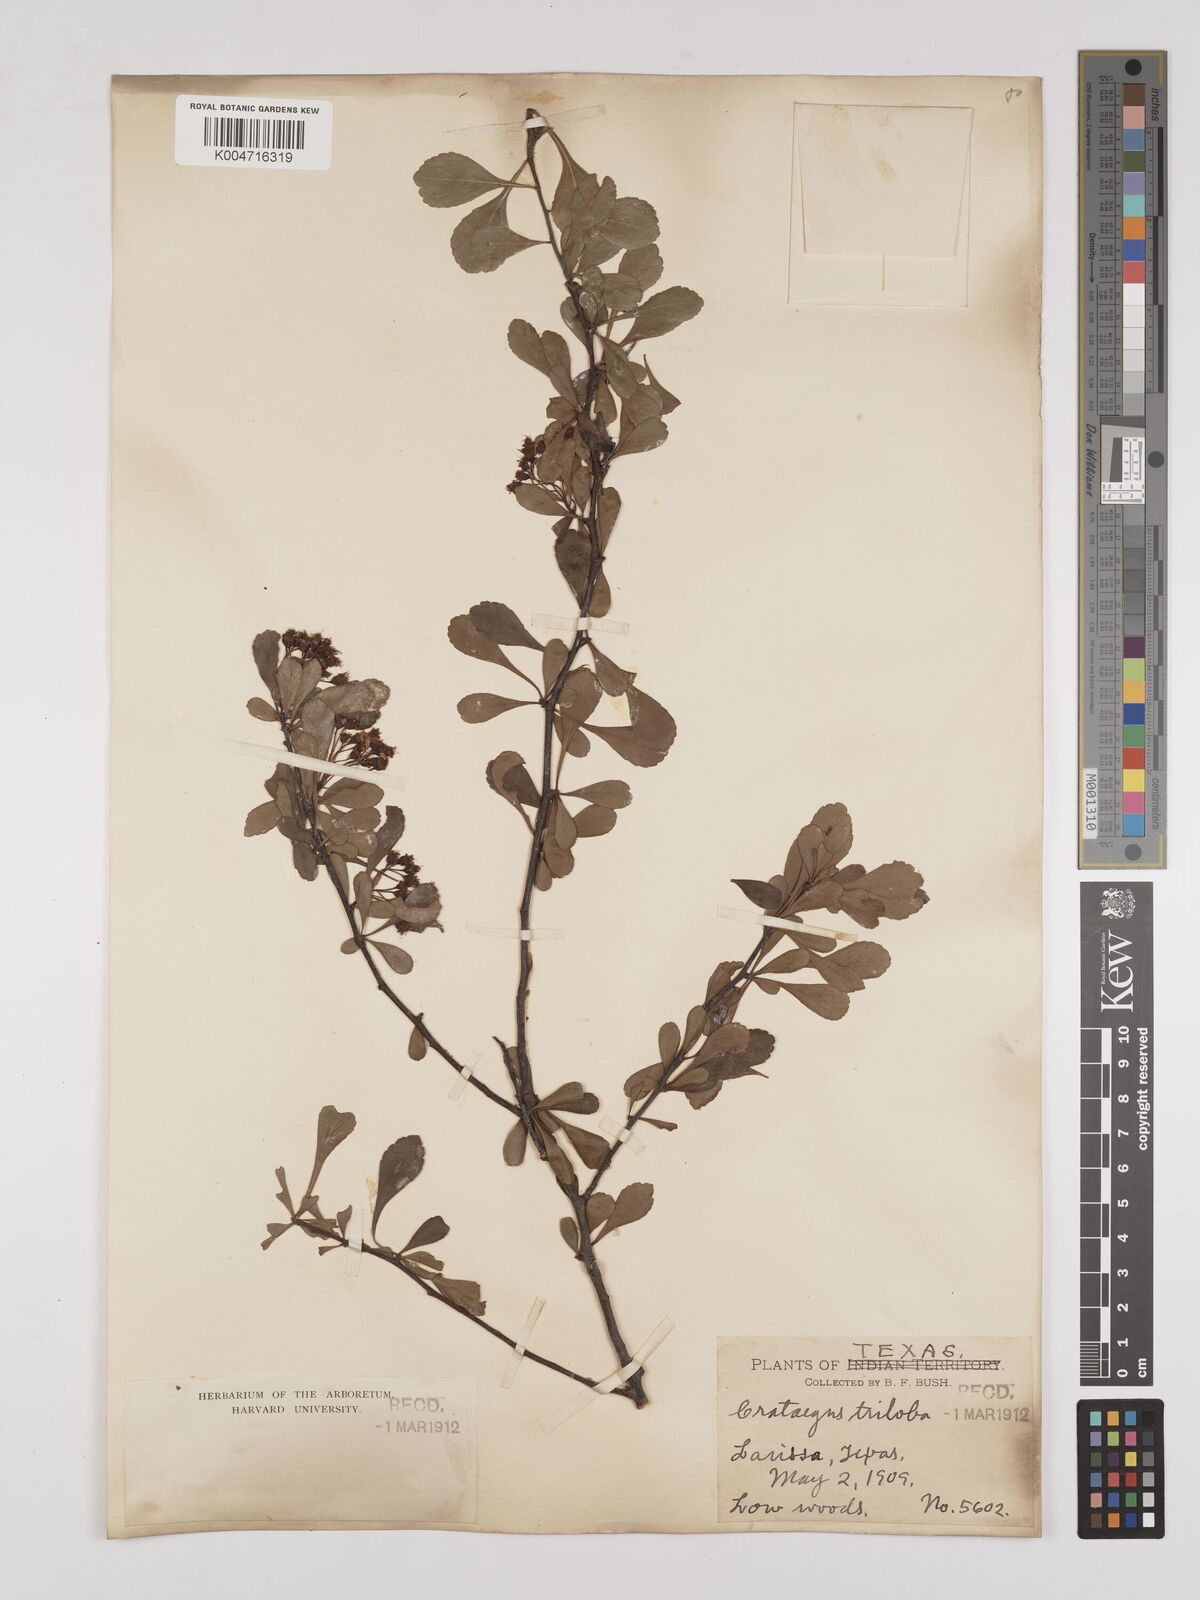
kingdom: Plantae
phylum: Tracheophyta
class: Magnoliopsida
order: Rosales
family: Rosaceae
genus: Crataegus
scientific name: Crataegus
